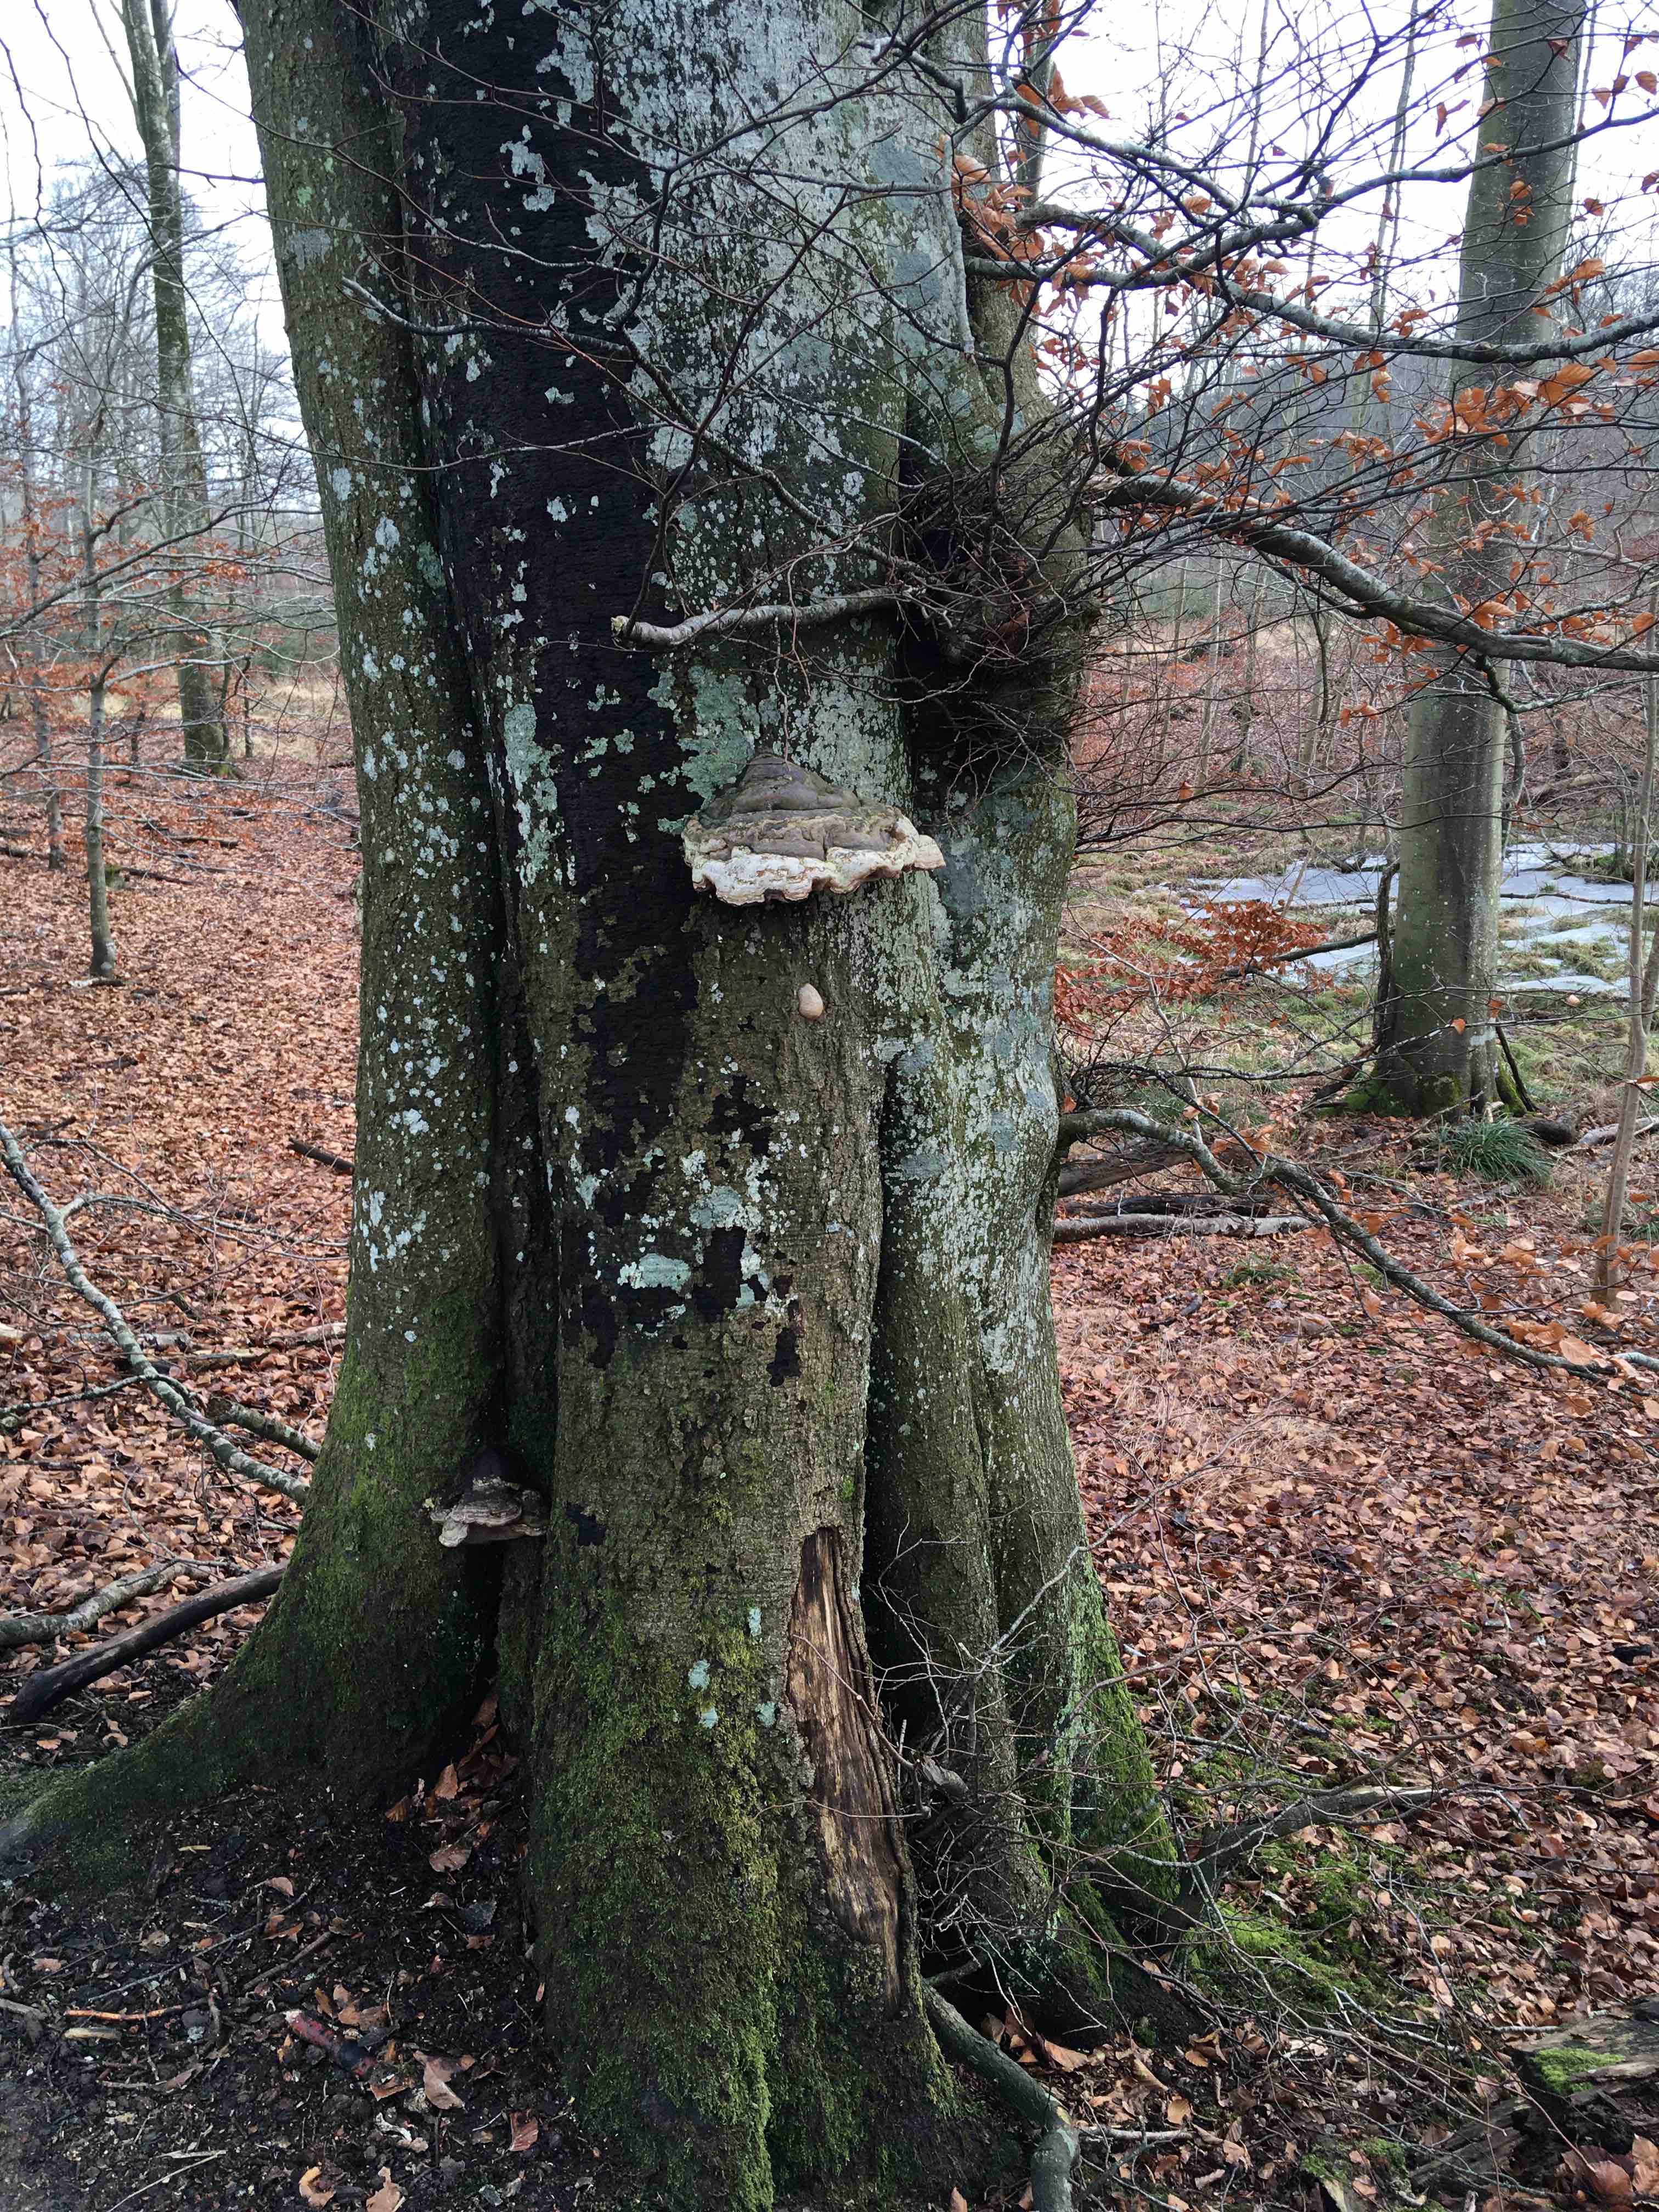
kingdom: Fungi
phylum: Basidiomycota
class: Agaricomycetes
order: Polyporales
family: Polyporaceae
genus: Fomes
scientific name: Fomes fomentarius
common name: tøndersvamp
